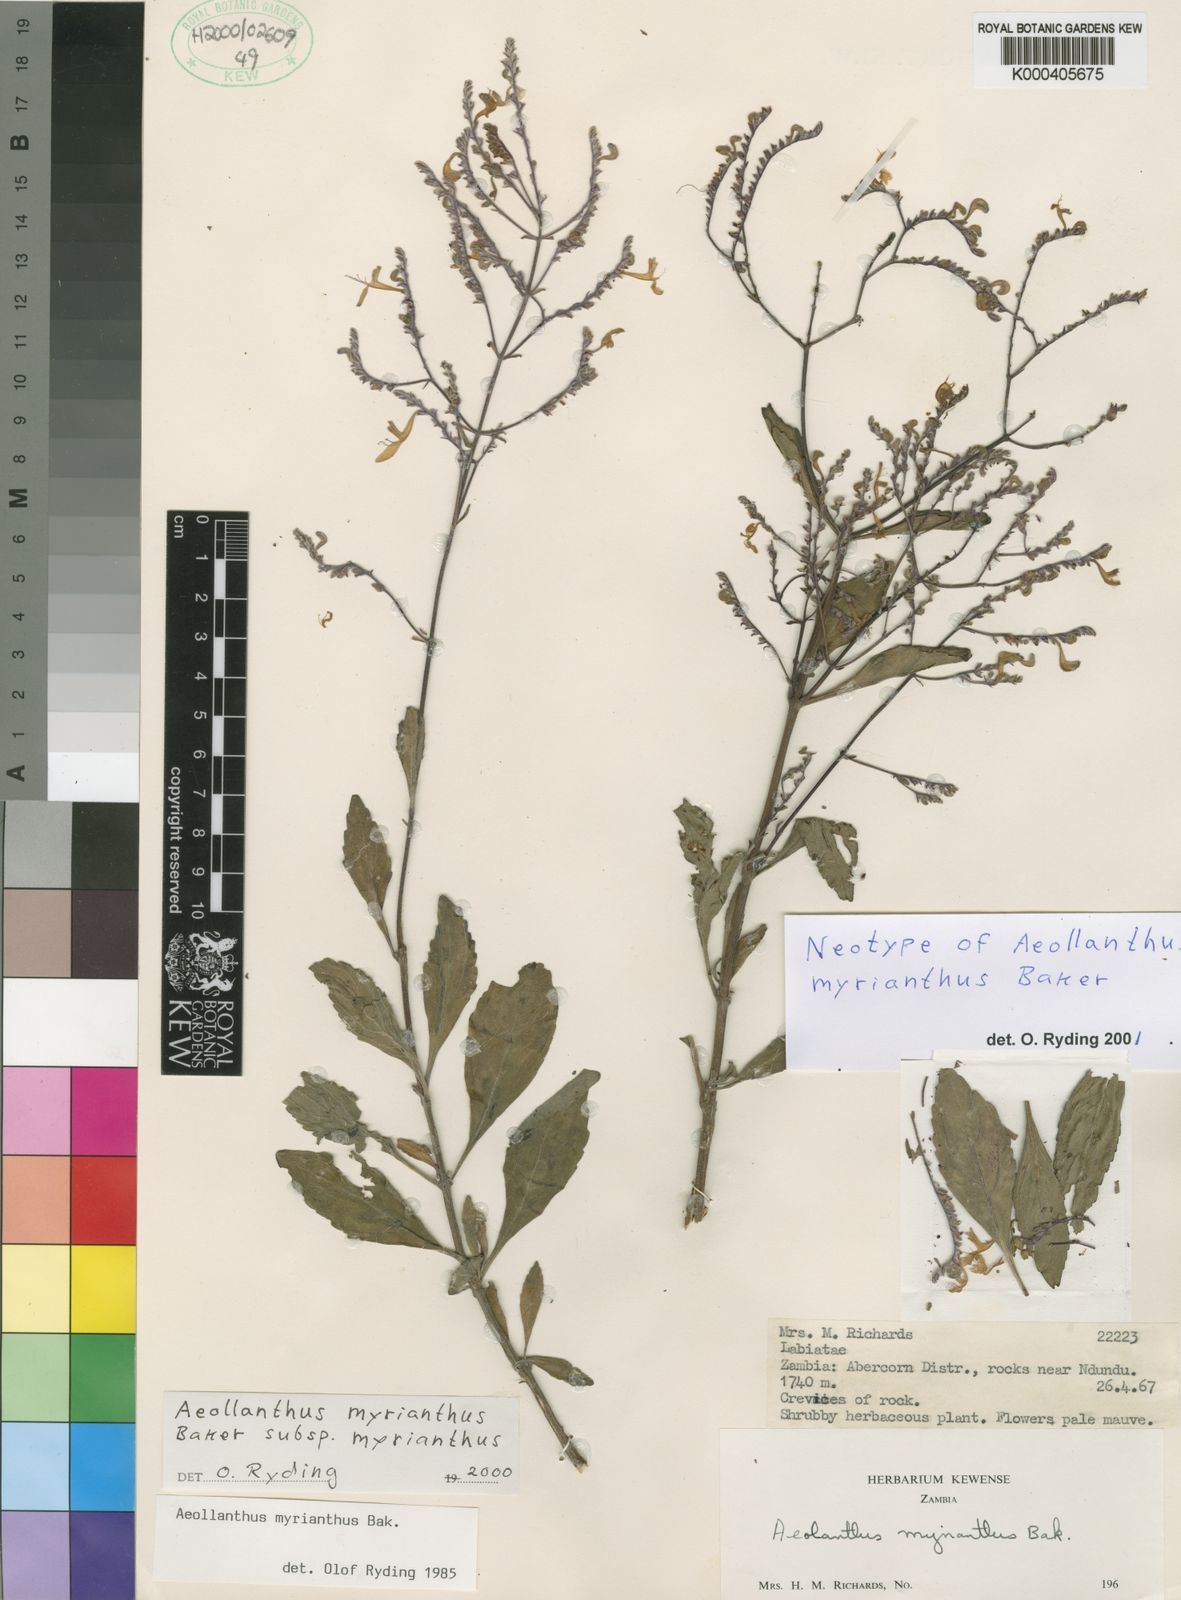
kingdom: Plantae
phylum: Tracheophyta
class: Magnoliopsida
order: Lamiales
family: Lamiaceae
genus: Aeollanthus
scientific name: Aeollanthus myrianthus
